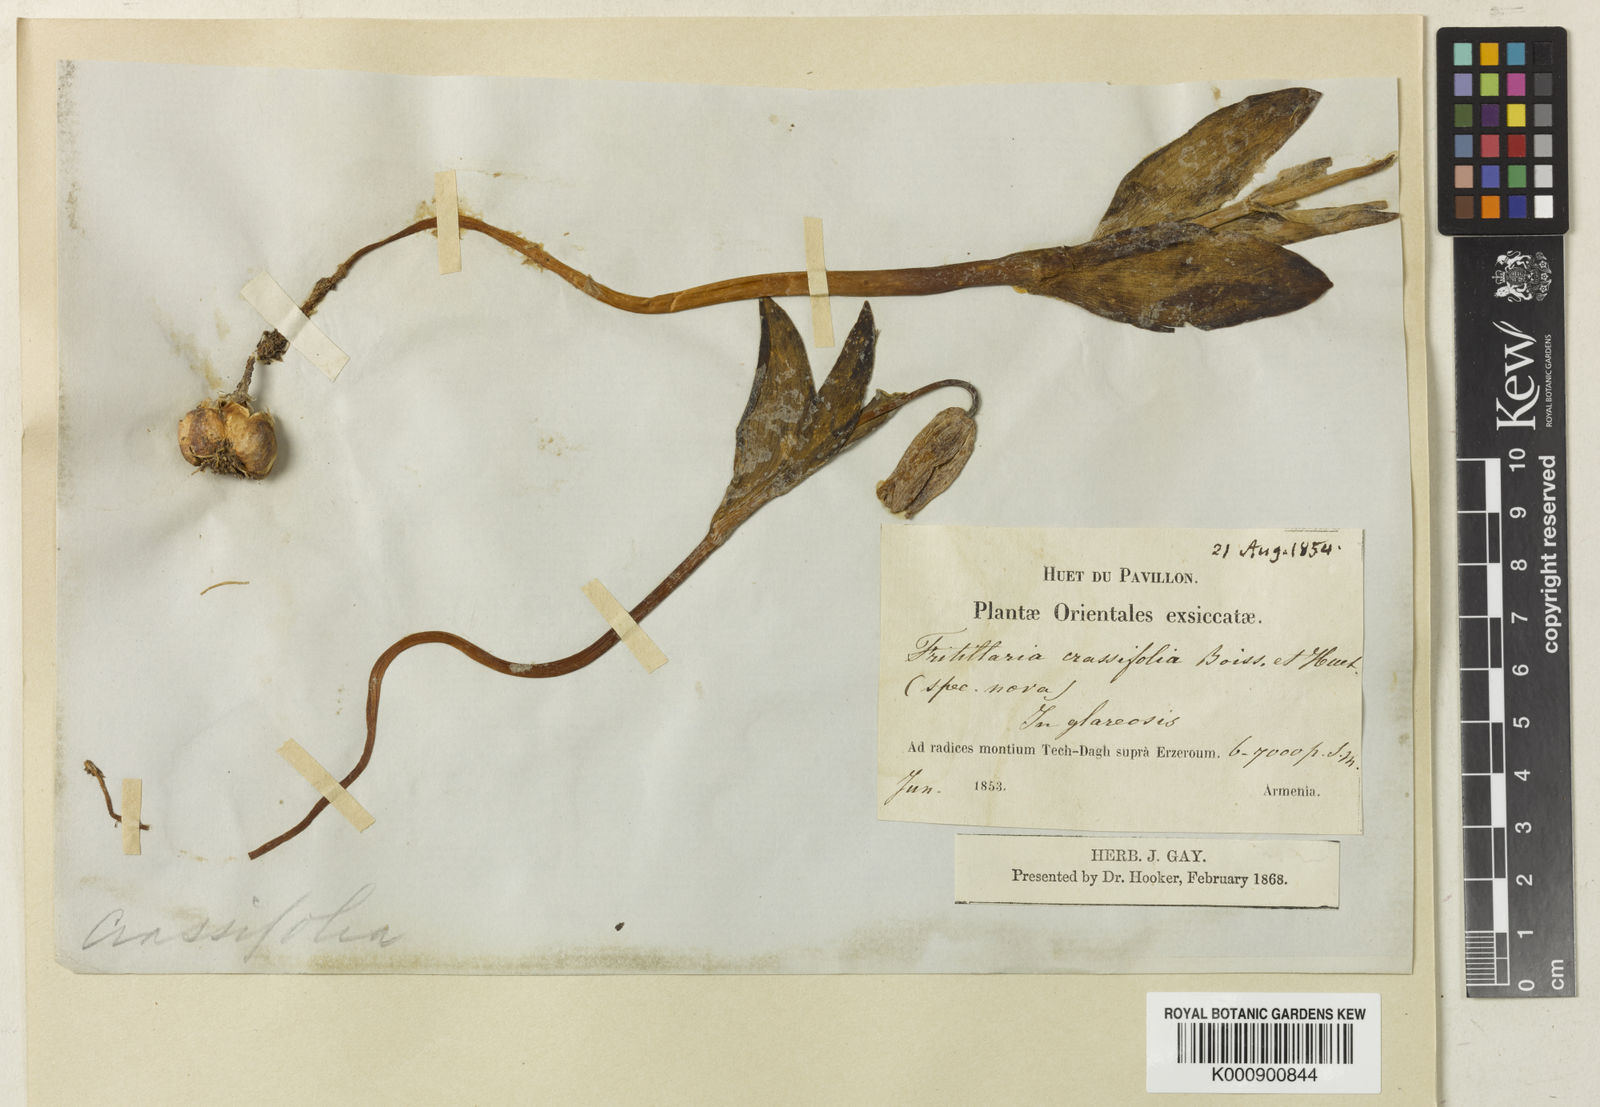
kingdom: Plantae
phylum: Tracheophyta
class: Liliopsida
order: Liliales
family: Liliaceae
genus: Fritillaria
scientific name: Fritillaria crassifolia
